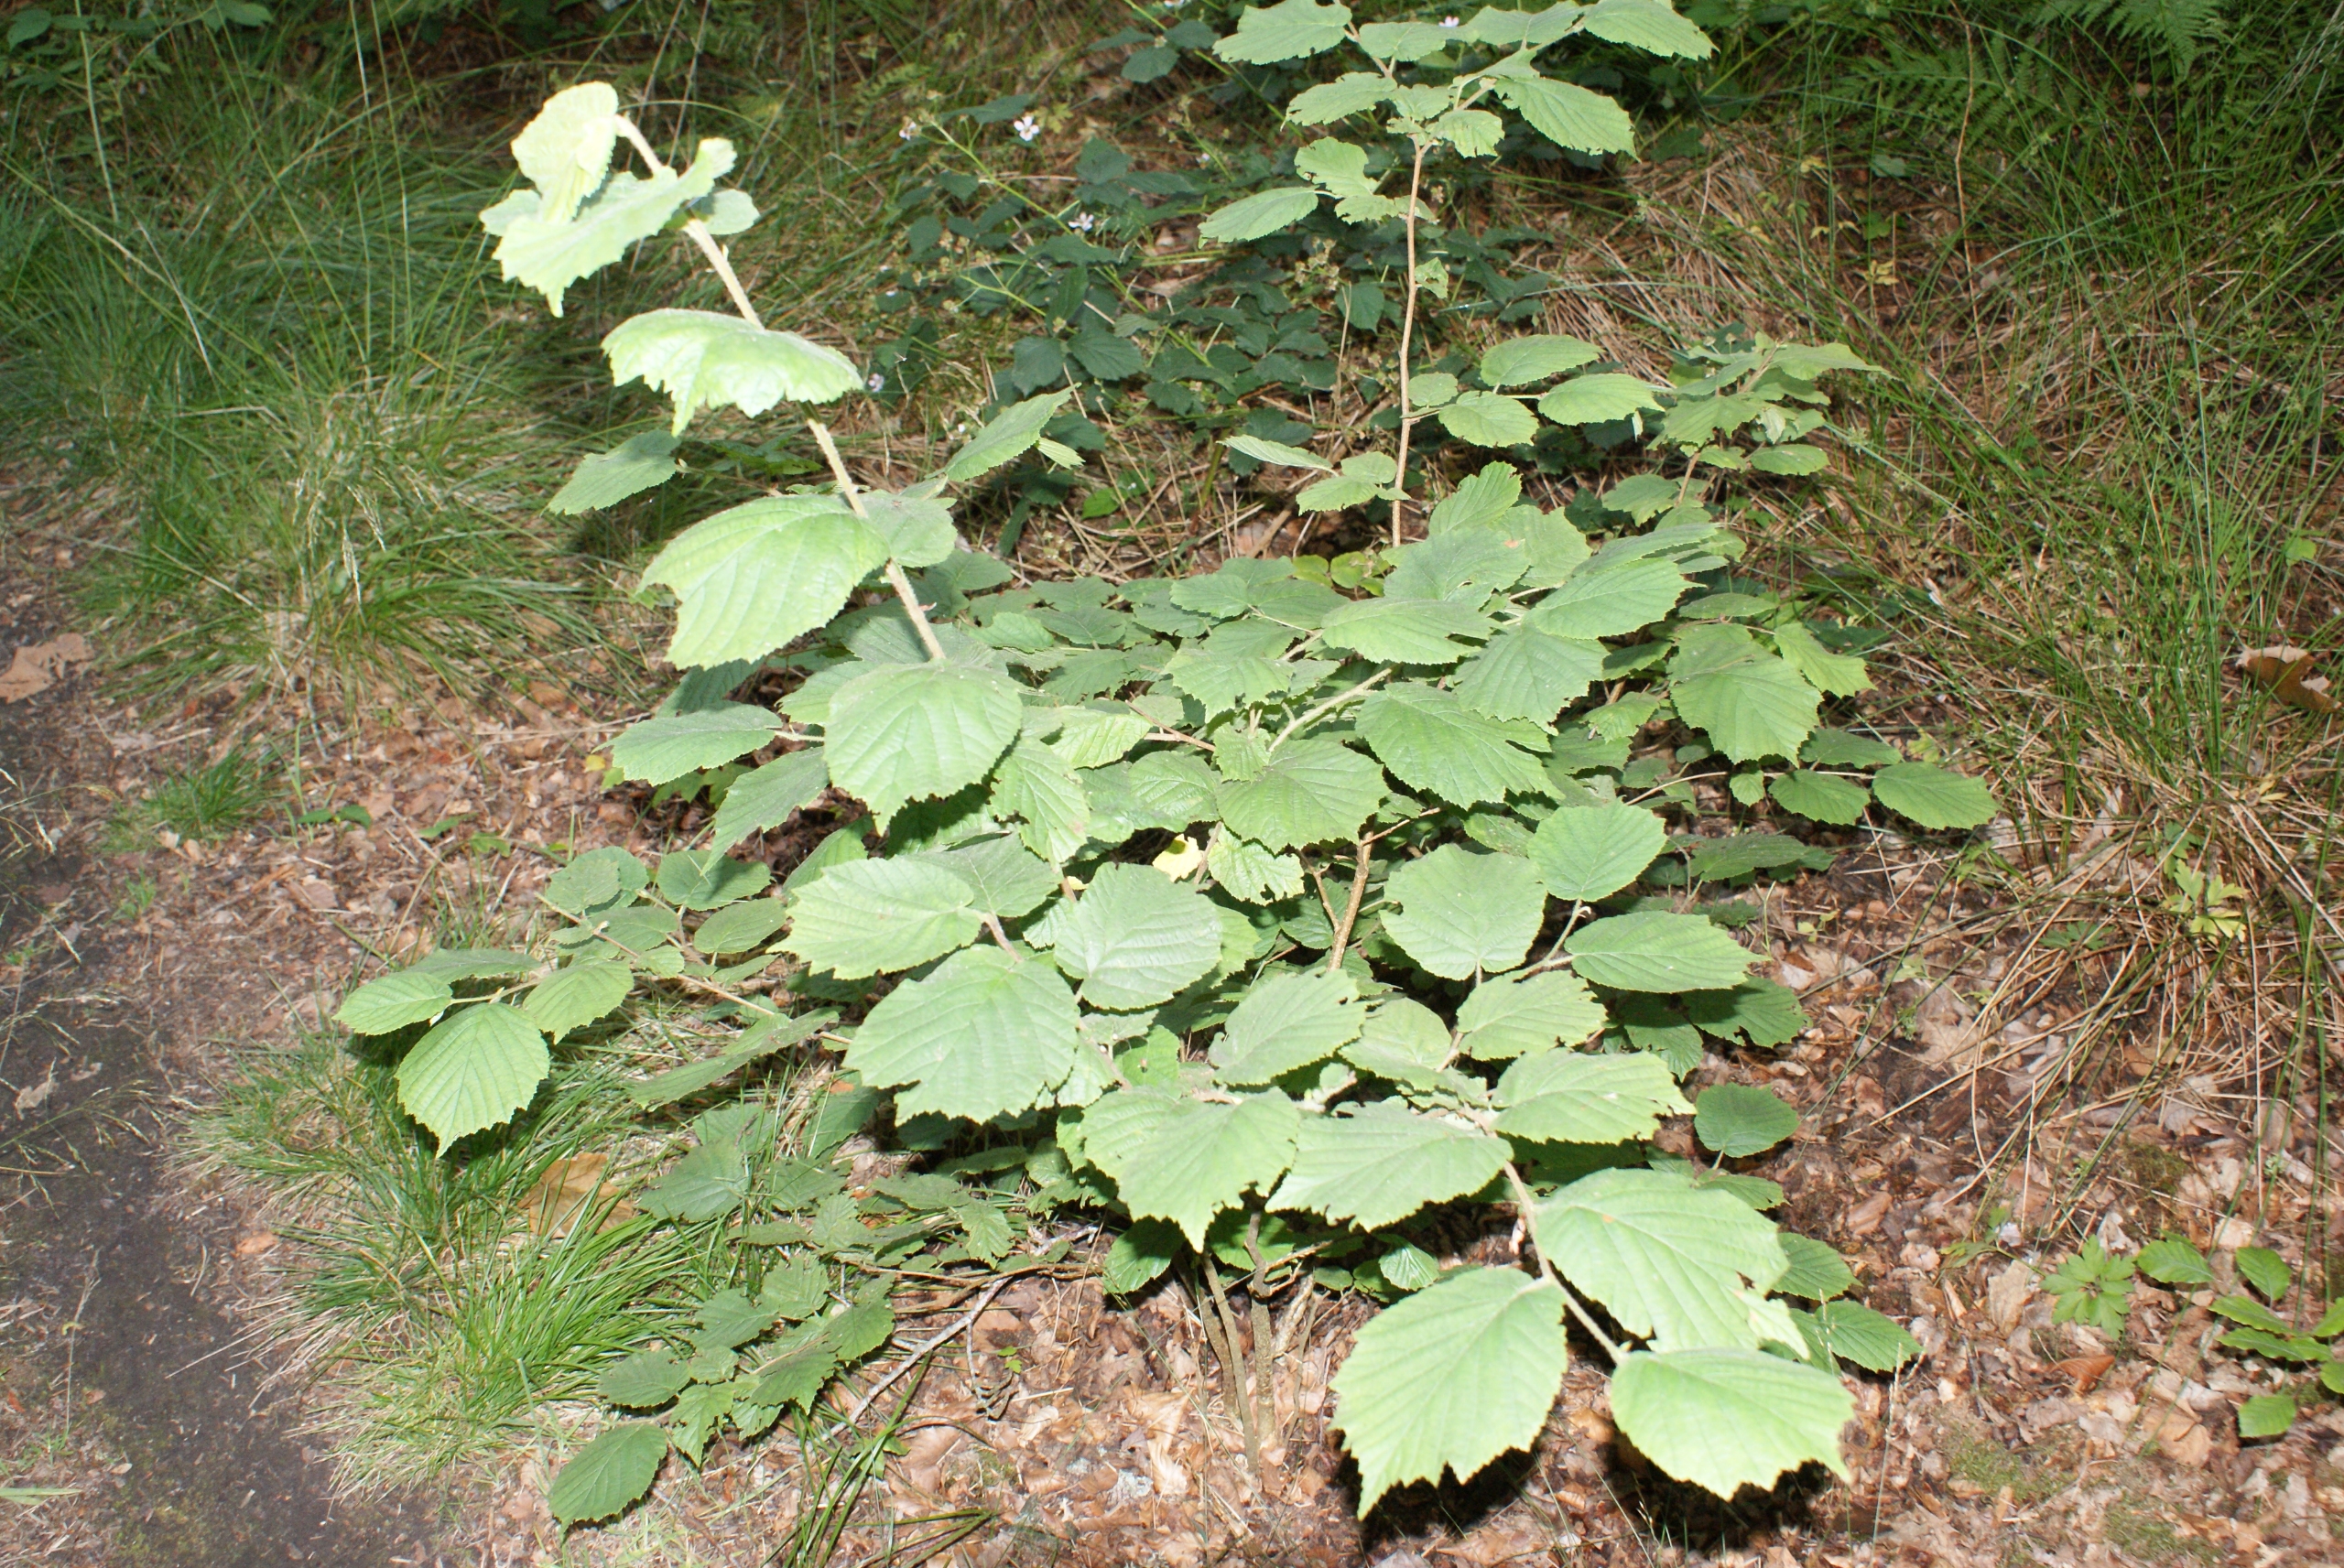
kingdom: Plantae
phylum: Tracheophyta
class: Magnoliopsida
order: Fagales
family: Betulaceae
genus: Corylus
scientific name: Corylus avellana
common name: Hassel
